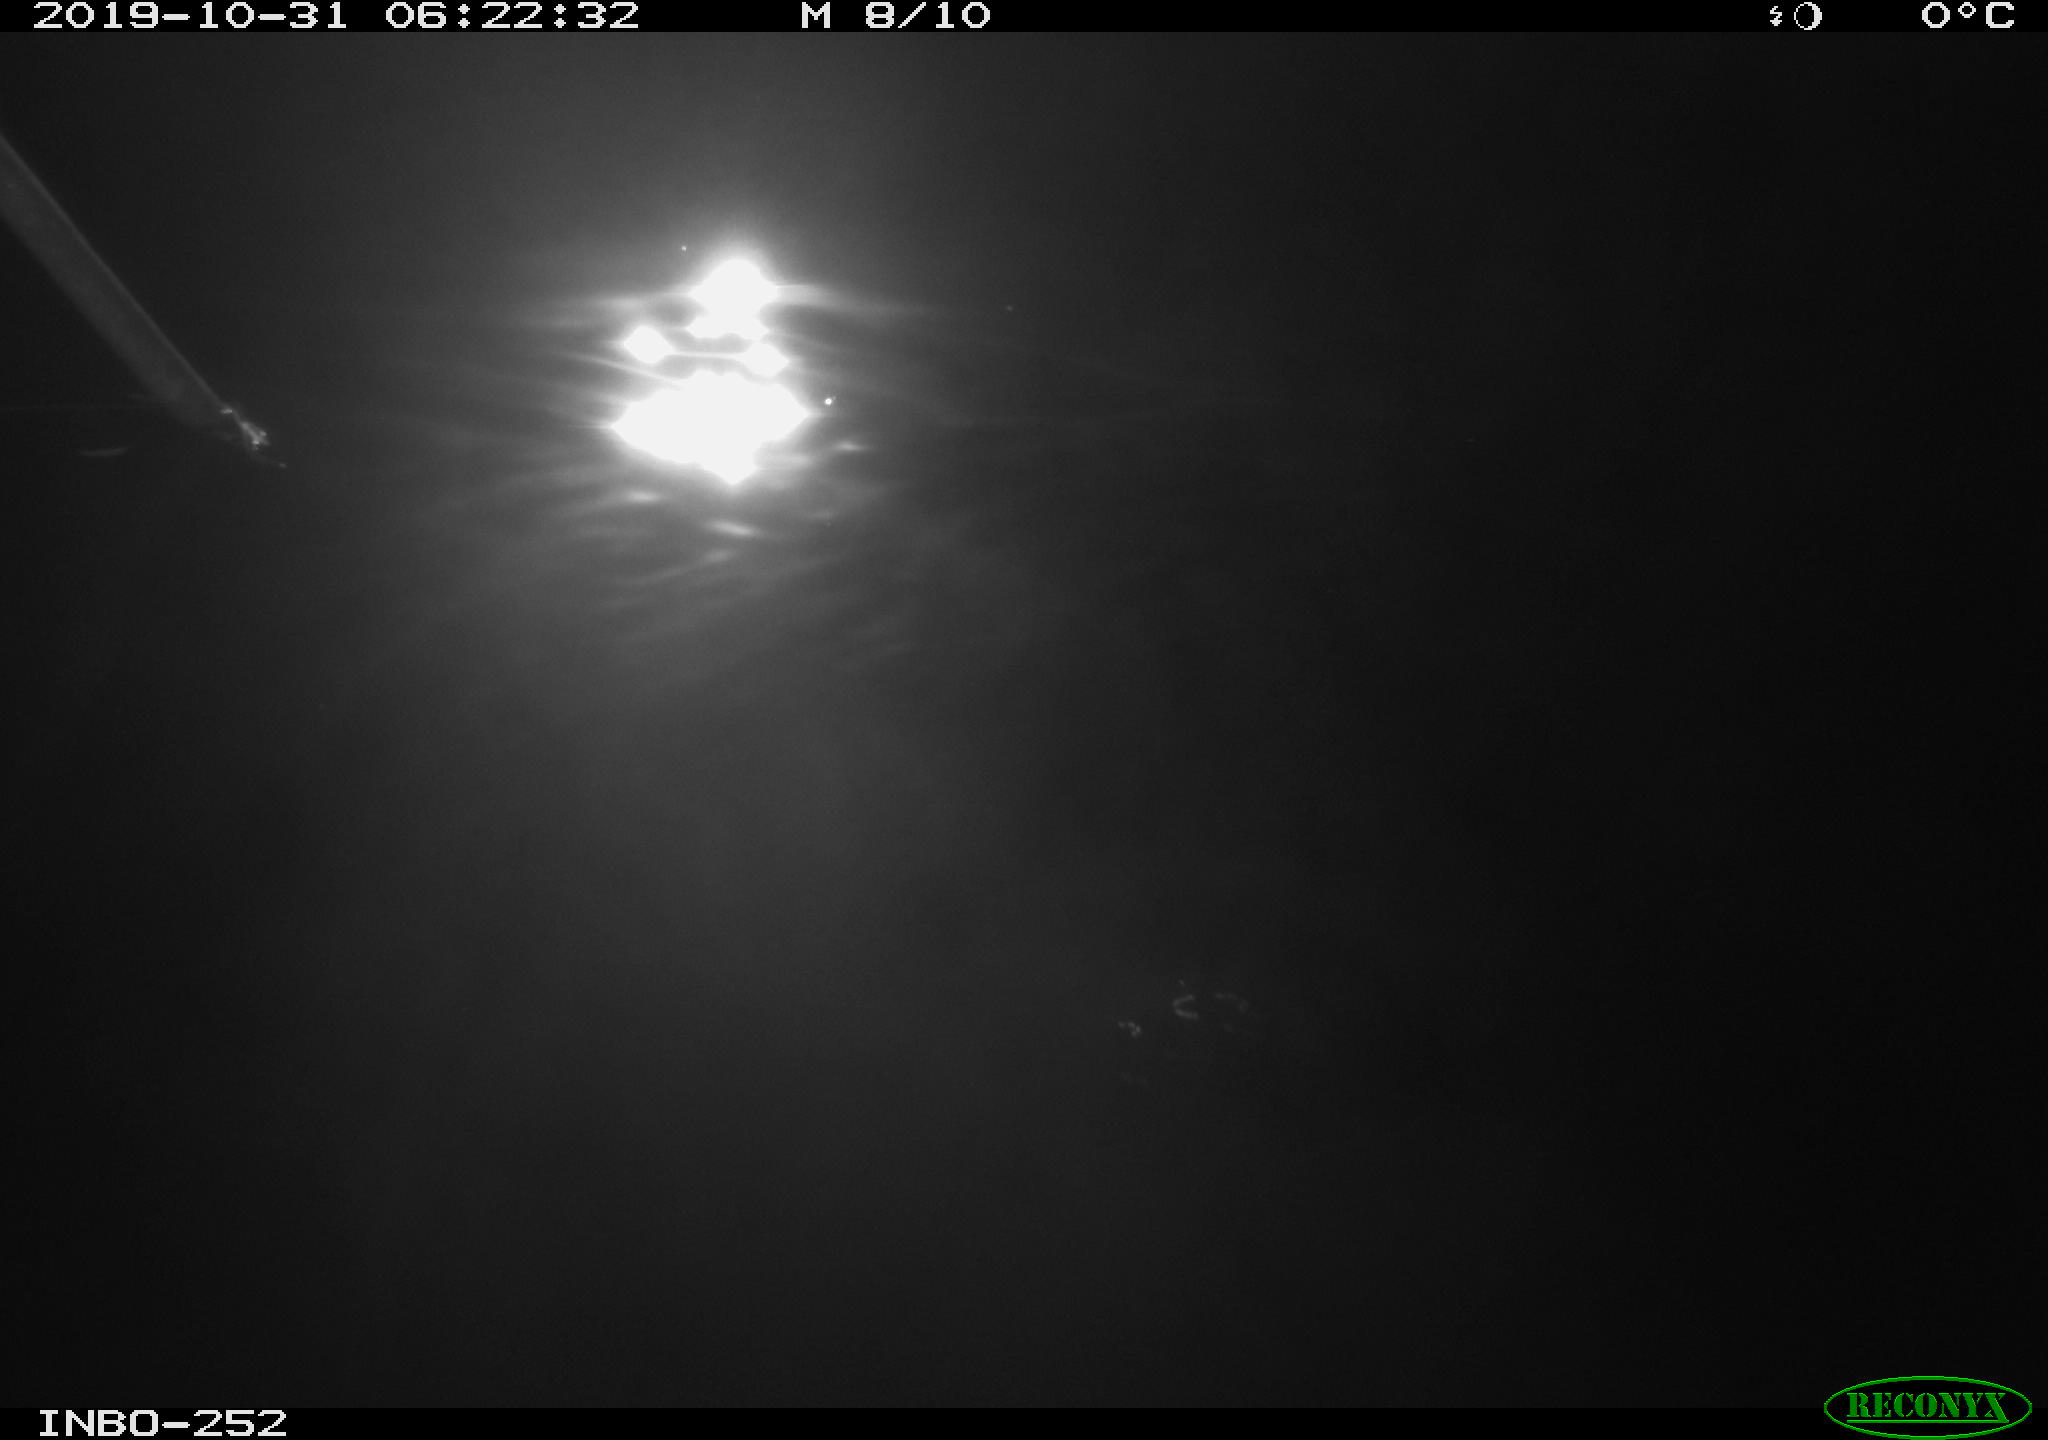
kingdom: Animalia
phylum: Chordata
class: Aves
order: Anseriformes
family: Anatidae
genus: Anas
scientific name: Anas platyrhynchos
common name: Mallard
